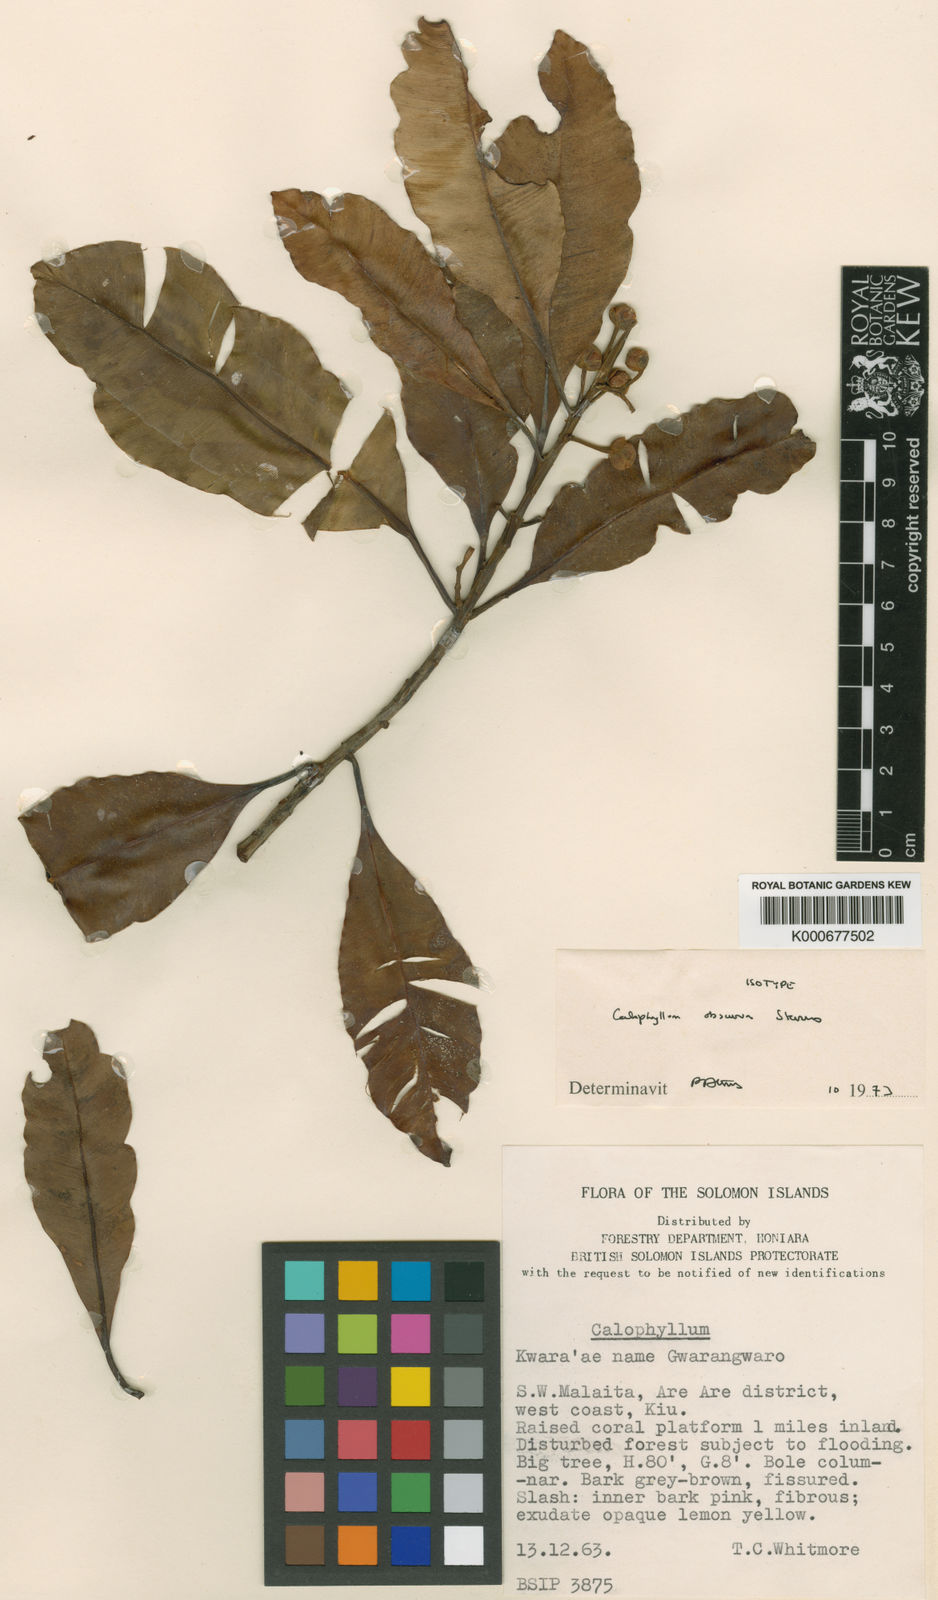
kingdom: Plantae
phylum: Tracheophyta
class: Magnoliopsida
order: Malpighiales
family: Calophyllaceae
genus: Calophyllum
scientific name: Calophyllum obscurum
